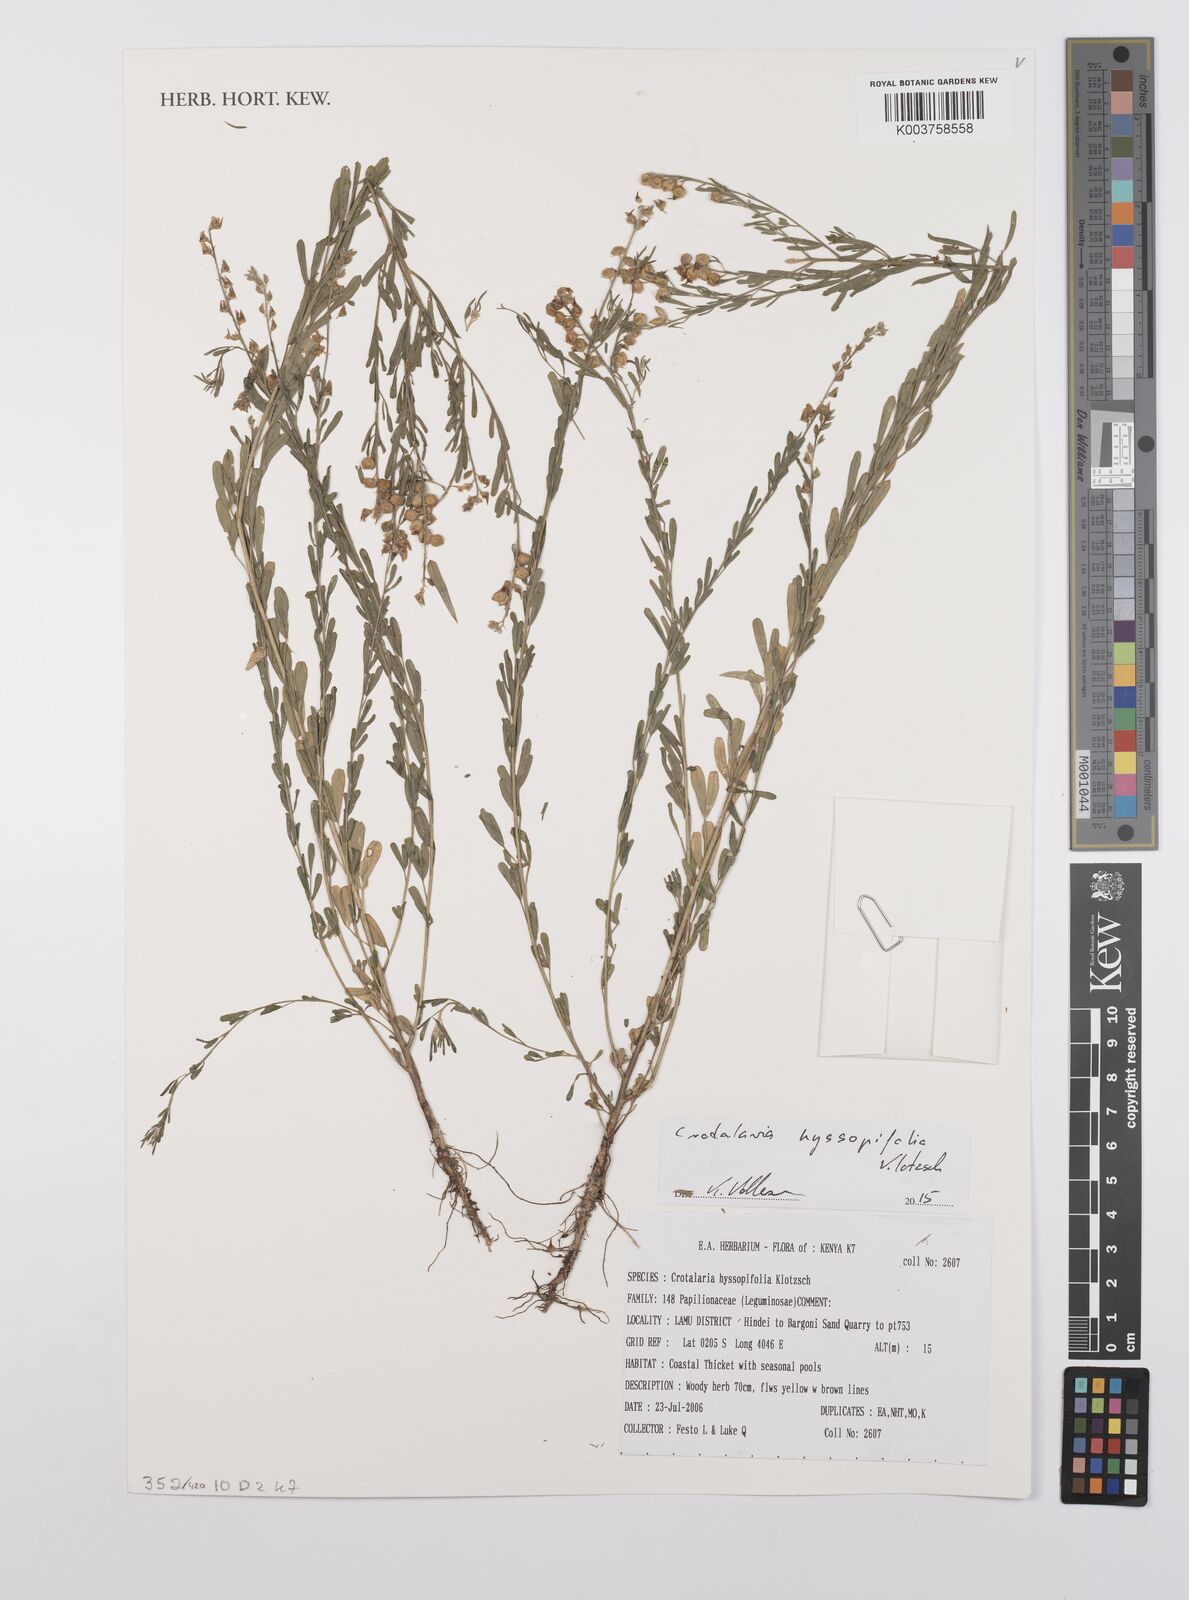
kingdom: Plantae
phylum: Tracheophyta
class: Magnoliopsida
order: Fabales
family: Fabaceae
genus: Crotalaria
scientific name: Crotalaria hyssopifolia
